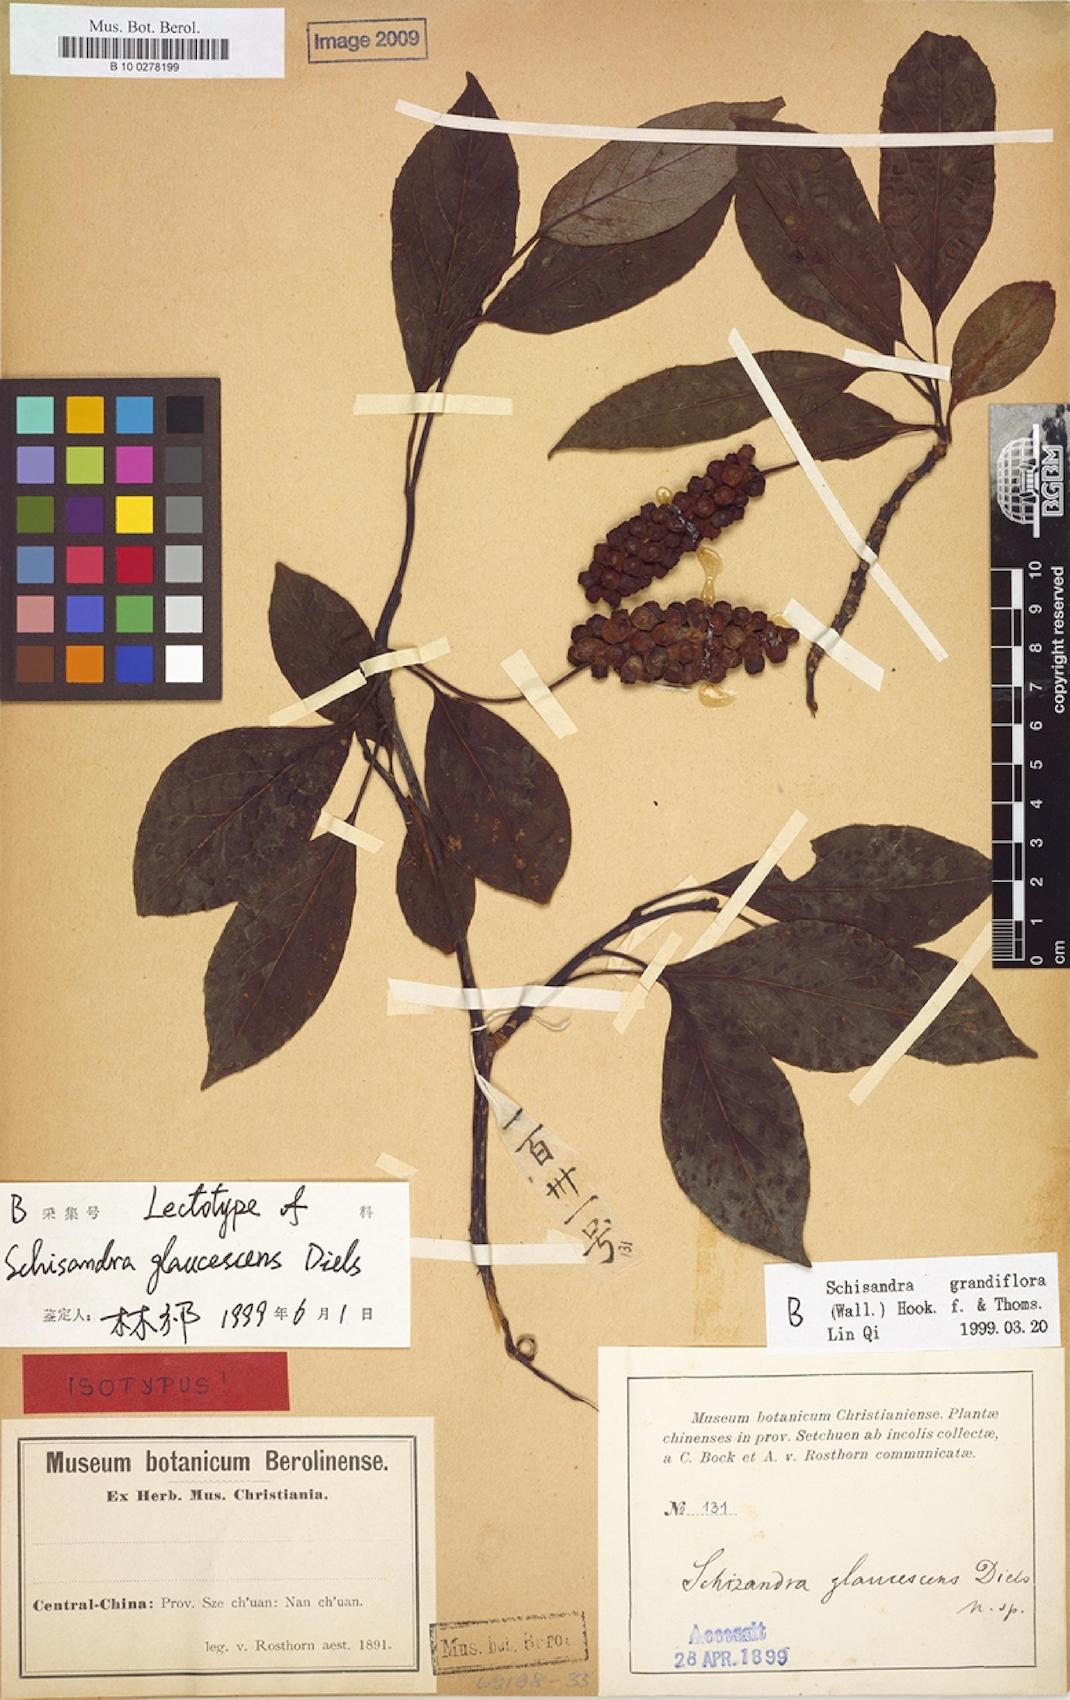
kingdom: Plantae
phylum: Tracheophyta
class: Magnoliopsida
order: Austrobaileyales
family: Schisandraceae
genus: Schisandra
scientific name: Schisandra grandiflora
